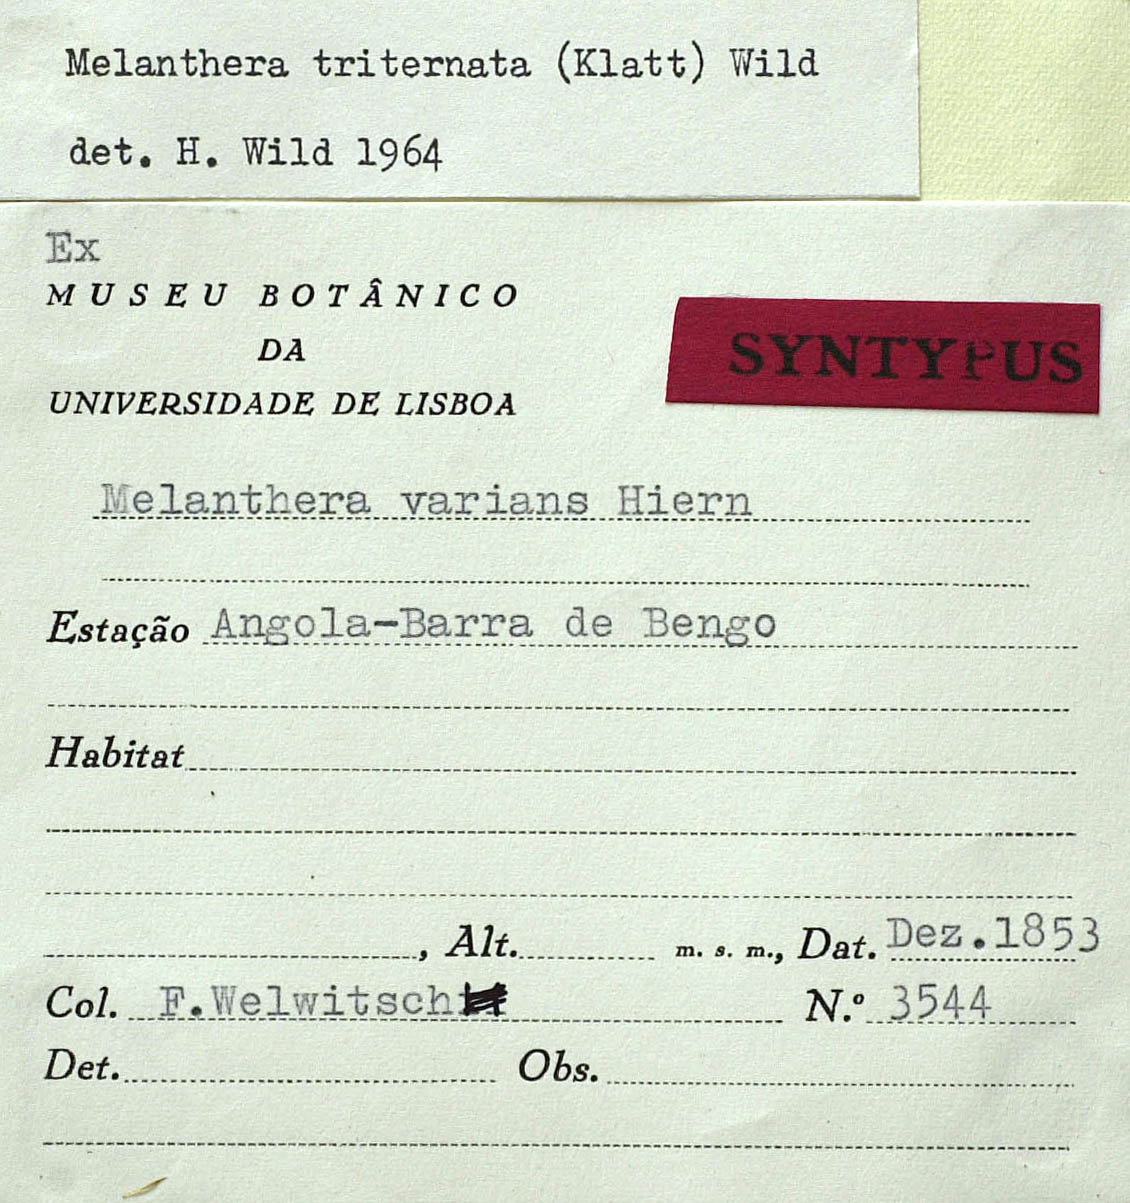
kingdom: Plantae
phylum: Tracheophyta
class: Magnoliopsida
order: Asterales
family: Asteraceae
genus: Lipotriche
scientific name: Lipotriche marlothiana
